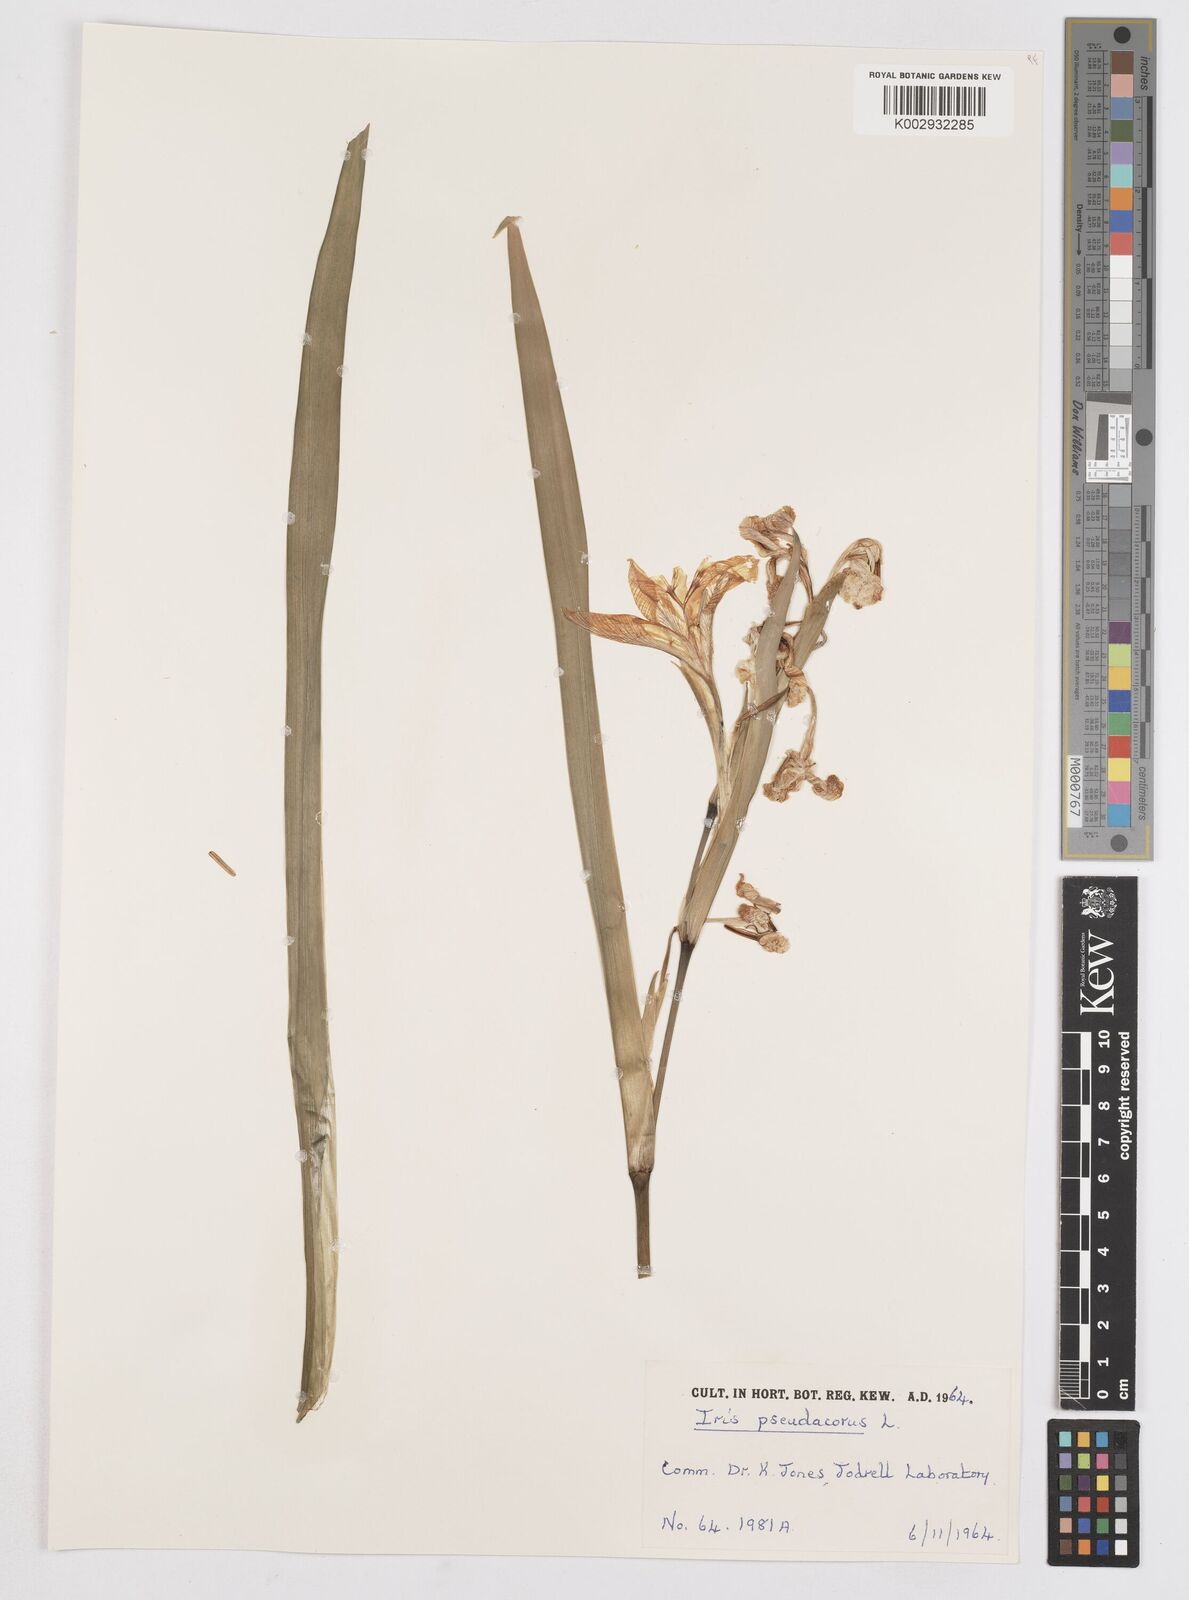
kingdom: Plantae
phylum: Tracheophyta
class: Liliopsida
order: Asparagales
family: Iridaceae
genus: Iris
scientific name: Iris pseudacorus
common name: Yellow flag
